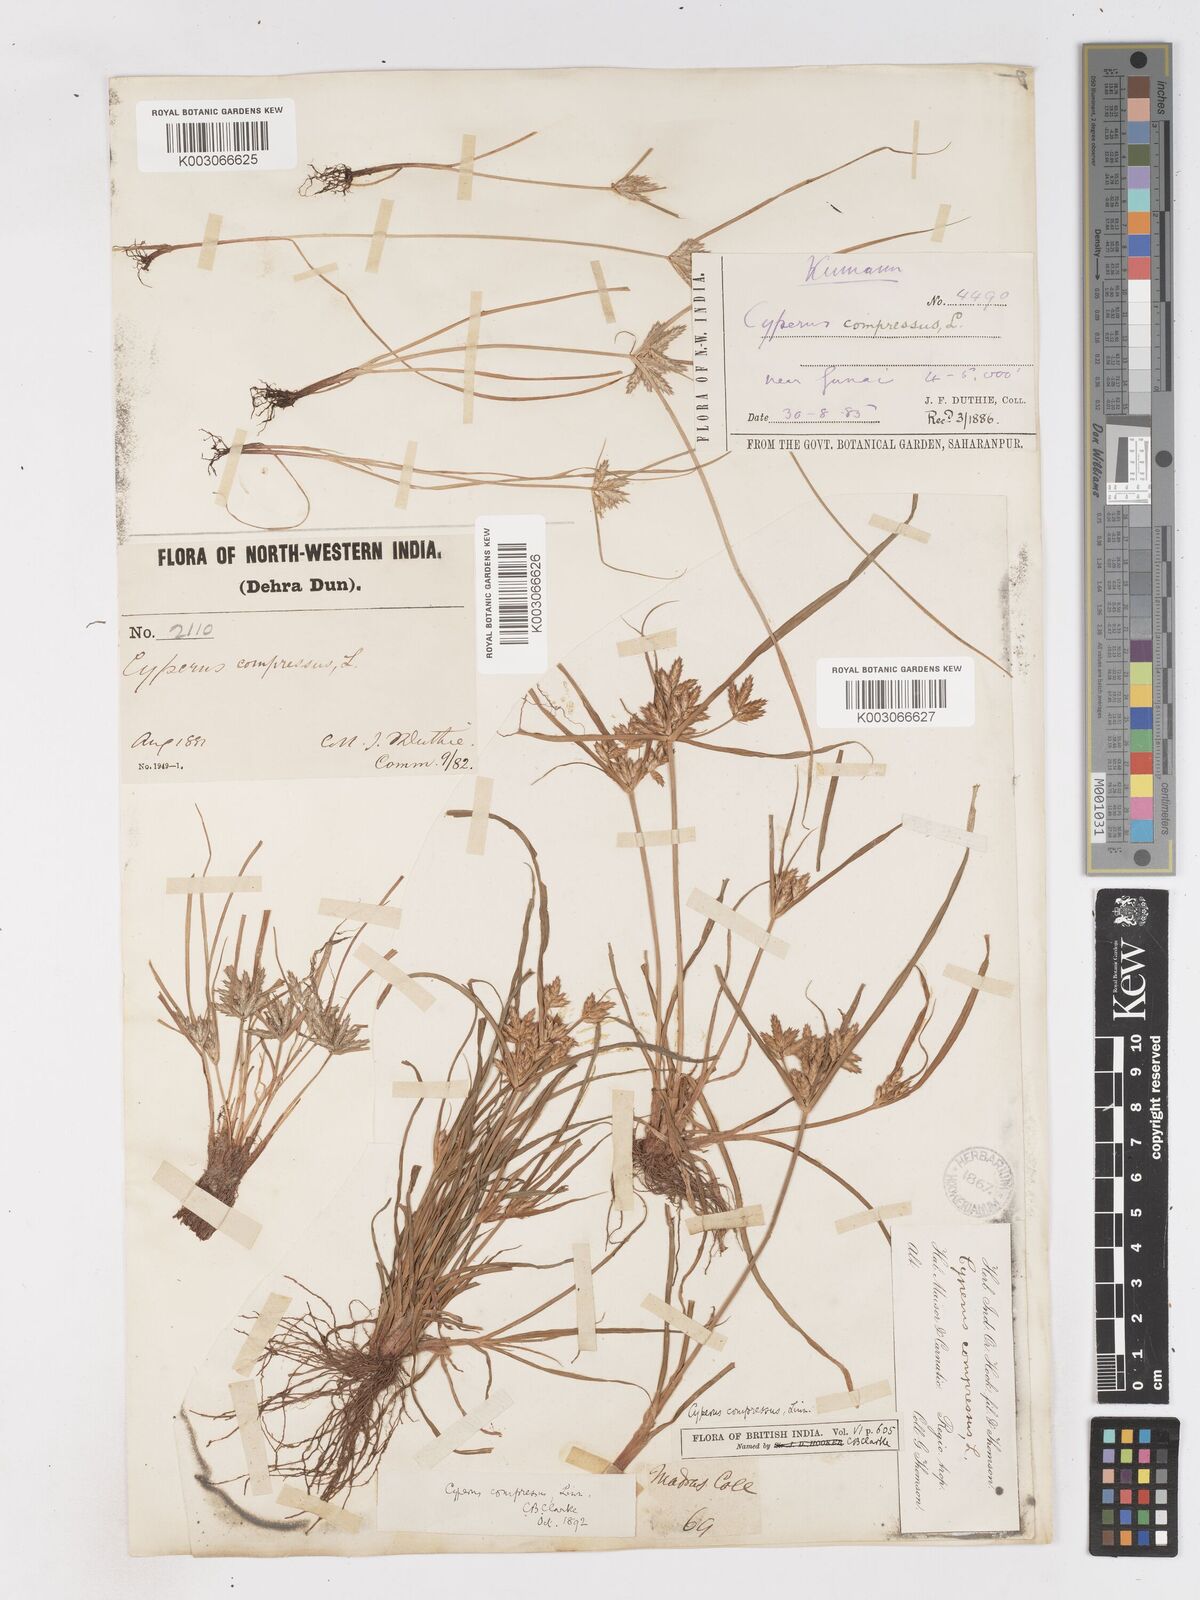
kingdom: Plantae
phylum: Tracheophyta
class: Liliopsida
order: Poales
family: Cyperaceae
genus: Cyperus
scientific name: Cyperus compressus
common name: Poorland flatsedge
